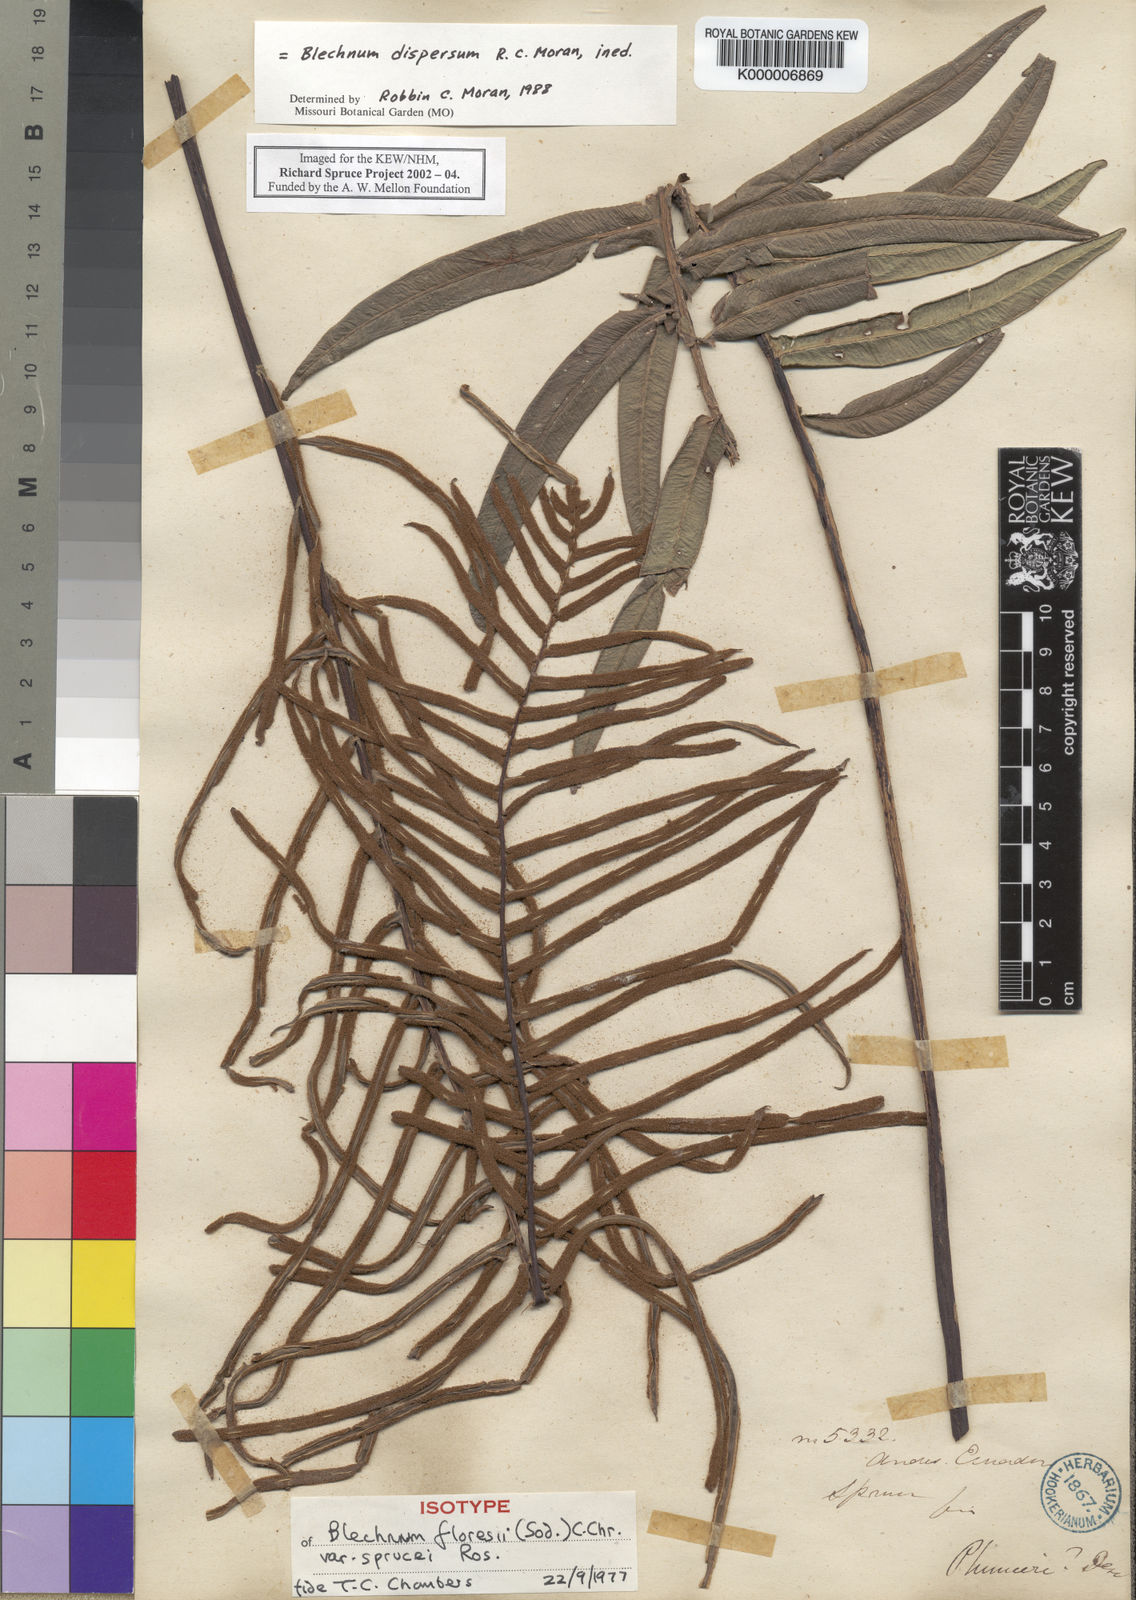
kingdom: Plantae
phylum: Tracheophyta
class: Polypodiopsida
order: Polypodiales
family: Blechnaceae
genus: Blechnum
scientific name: Blechnum
